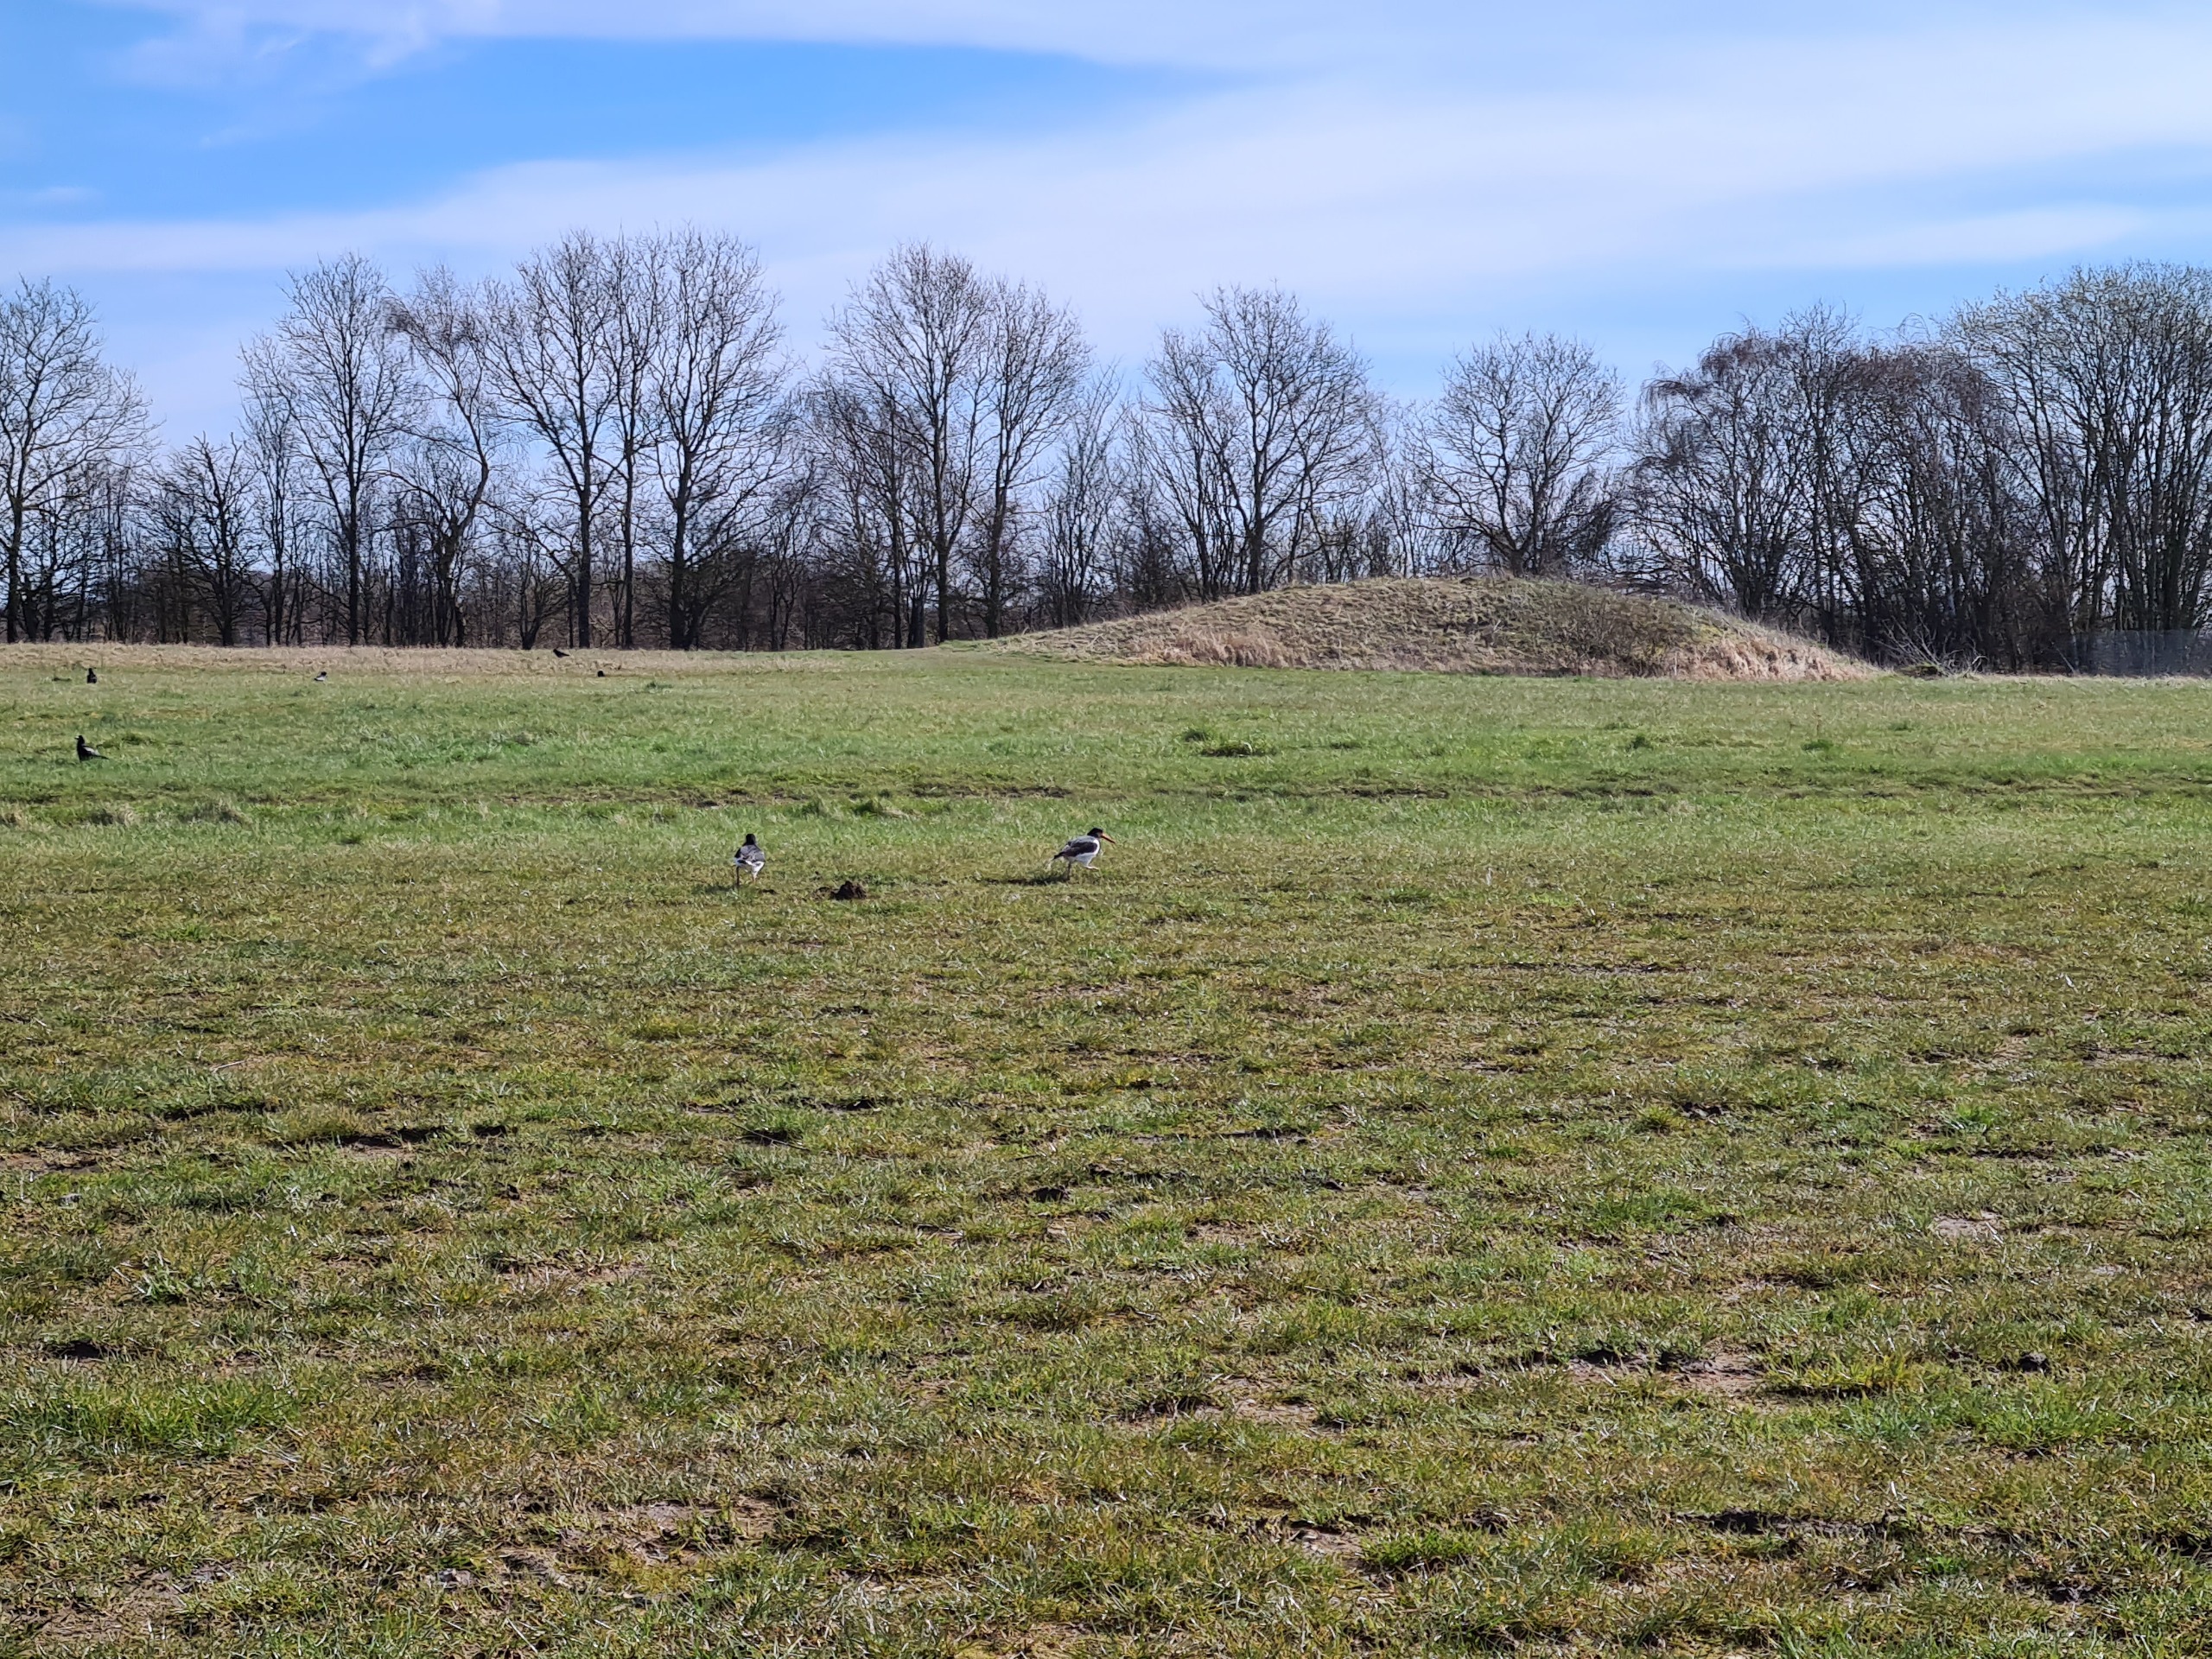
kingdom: Animalia
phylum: Chordata
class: Aves
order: Charadriiformes
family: Haematopodidae
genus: Haematopus
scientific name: Haematopus ostralegus
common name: Strandskade
